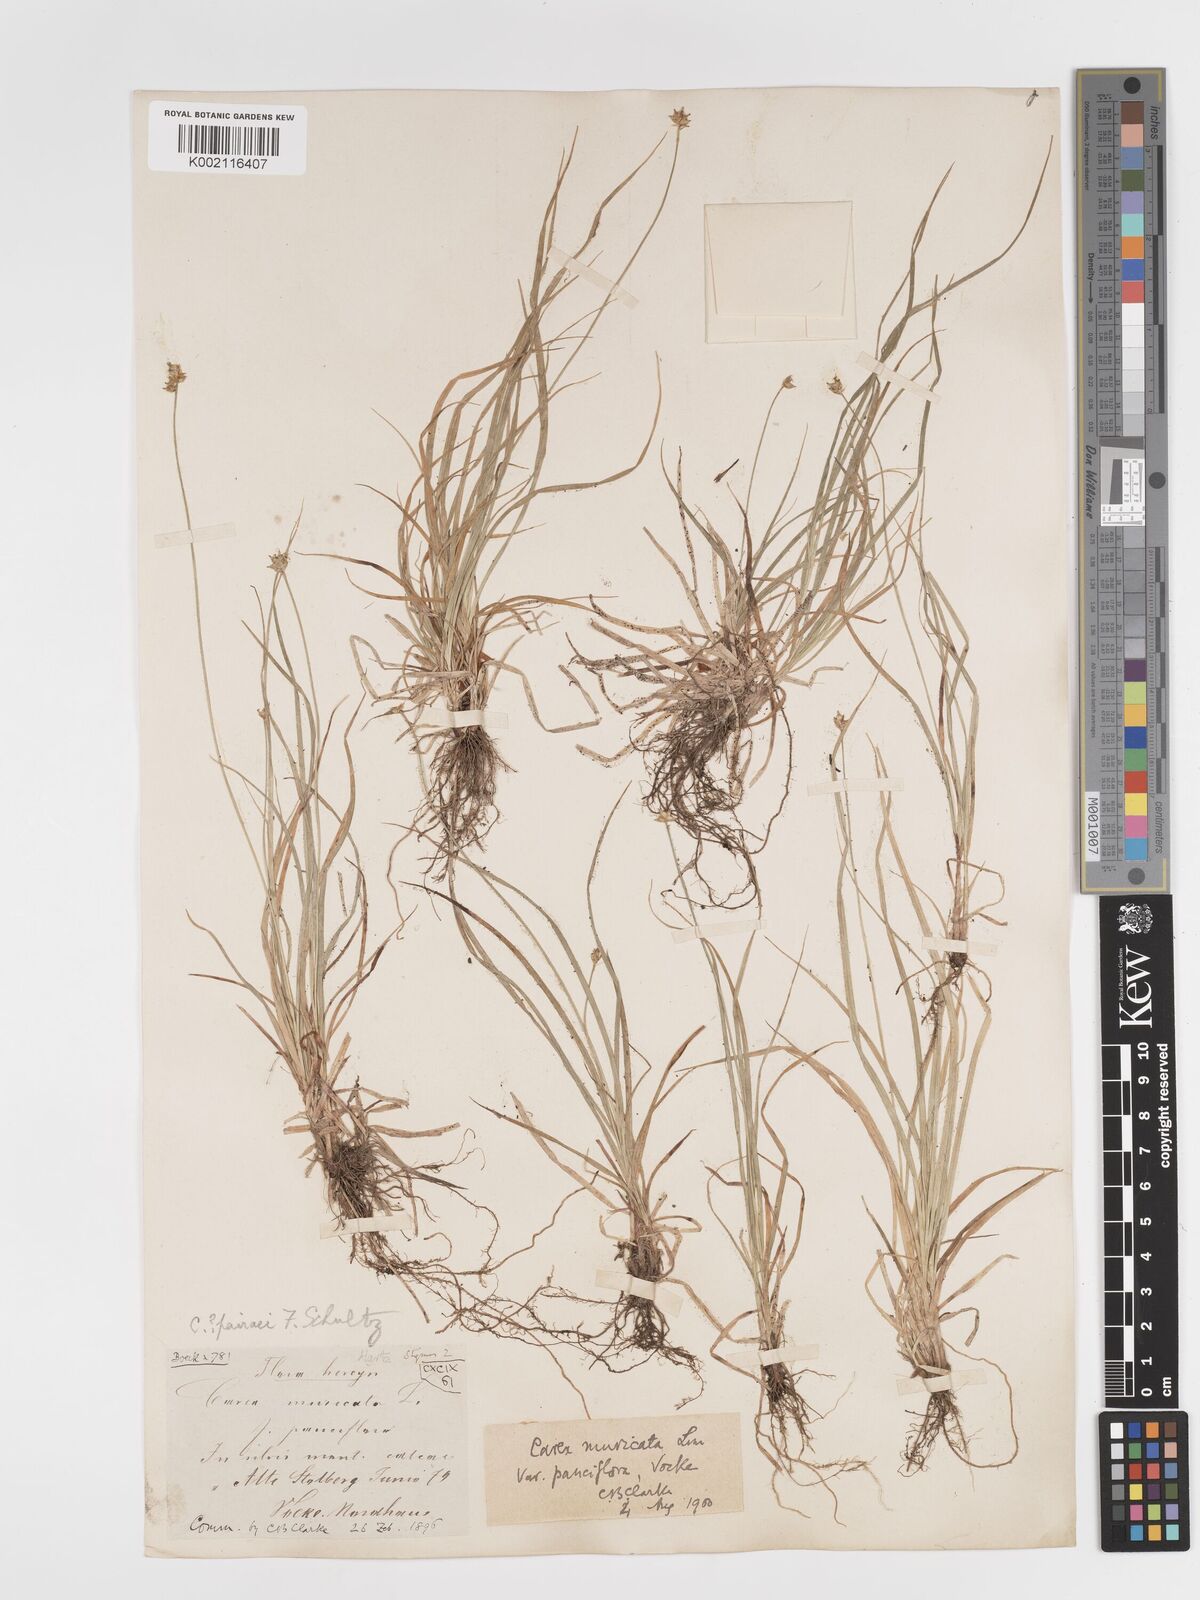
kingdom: Plantae
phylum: Tracheophyta
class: Liliopsida
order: Poales
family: Cyperaceae
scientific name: Cyperaceae
